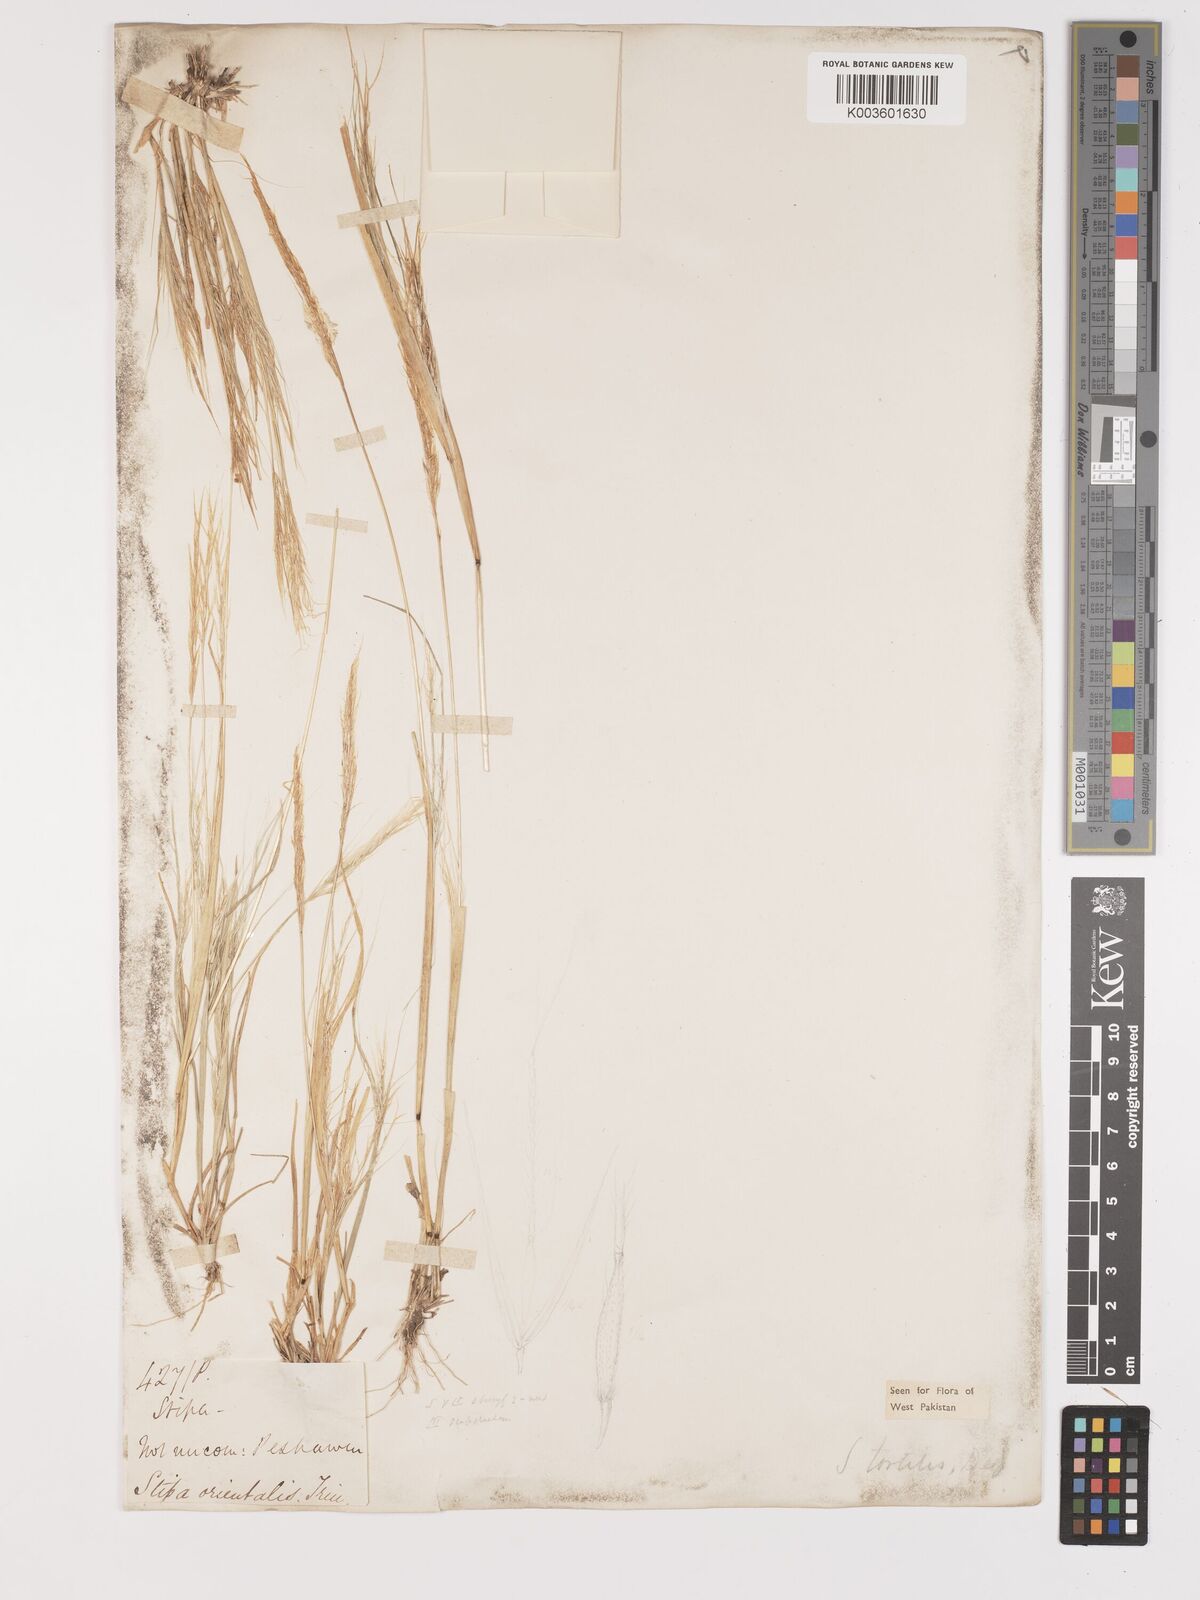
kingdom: Plantae
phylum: Tracheophyta
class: Liliopsida
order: Poales
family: Poaceae
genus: Stipellula
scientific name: Stipellula capensis
